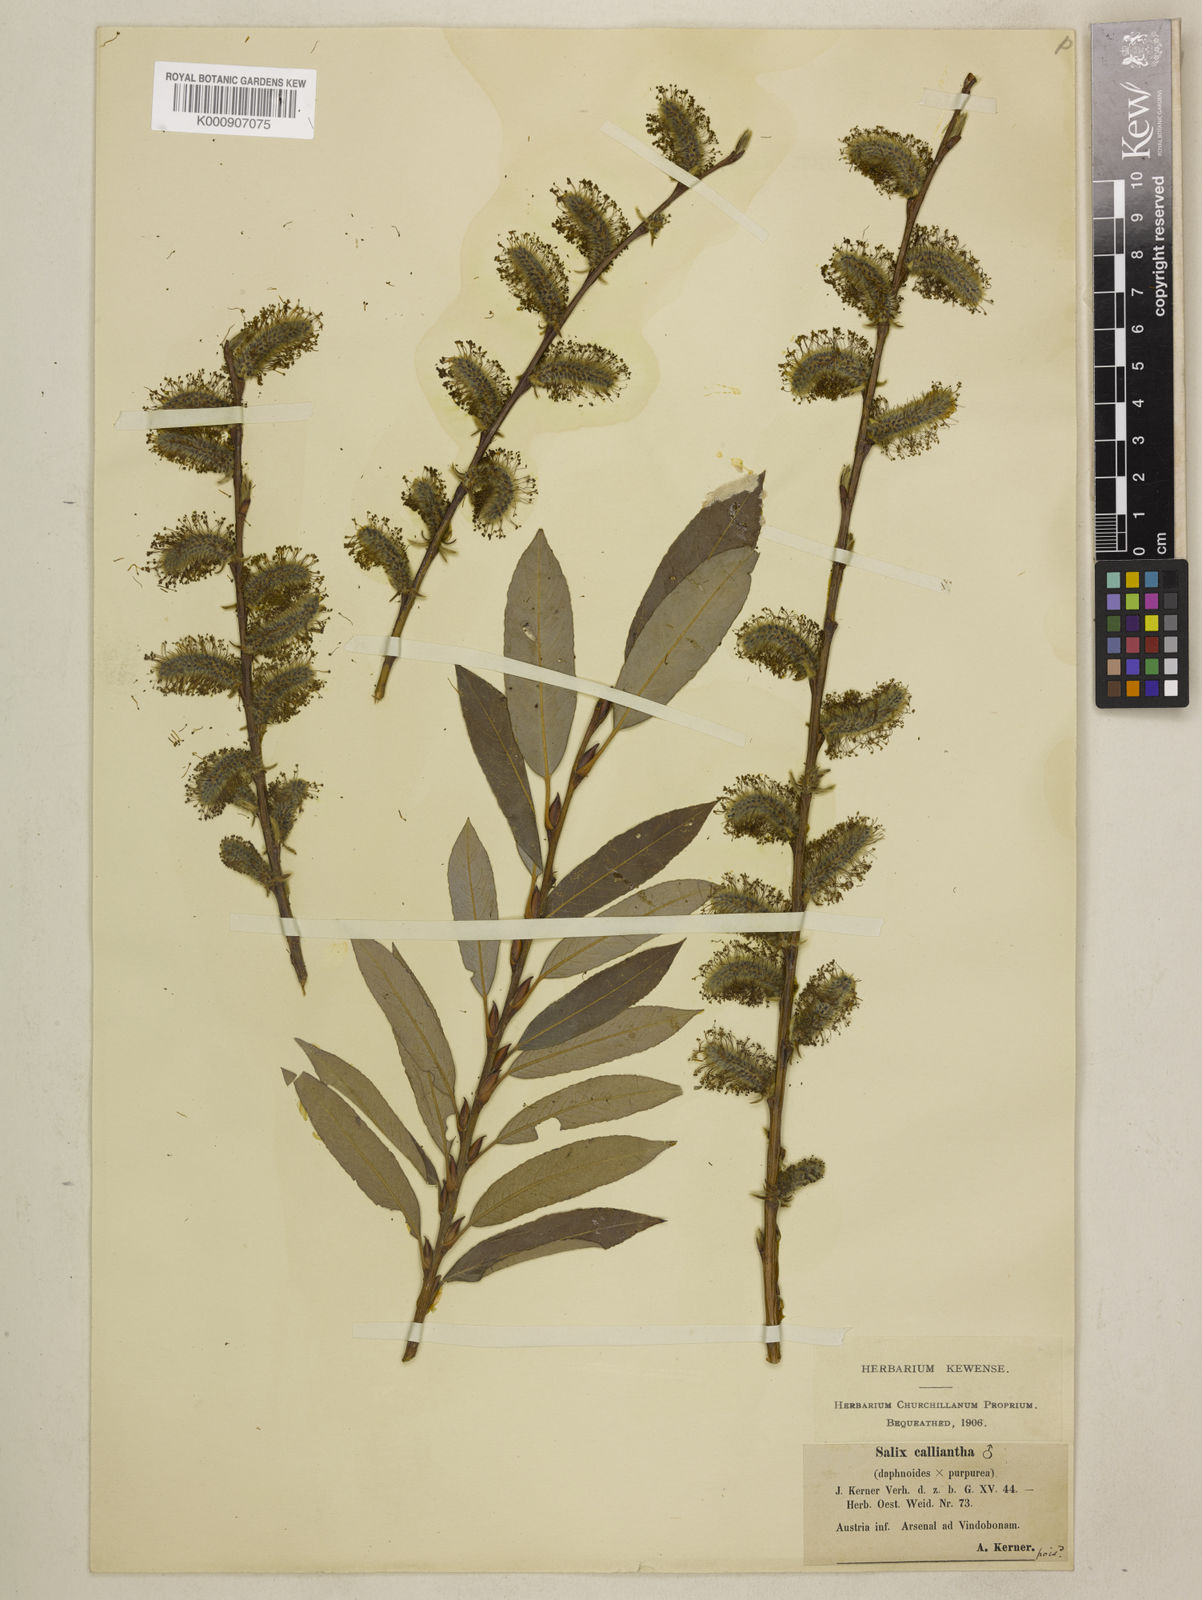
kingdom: Plantae
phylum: Tracheophyta
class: Magnoliopsida
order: Malpighiales
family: Salicaceae
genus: Salix
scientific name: Salix daphnoides
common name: European violet-willow
